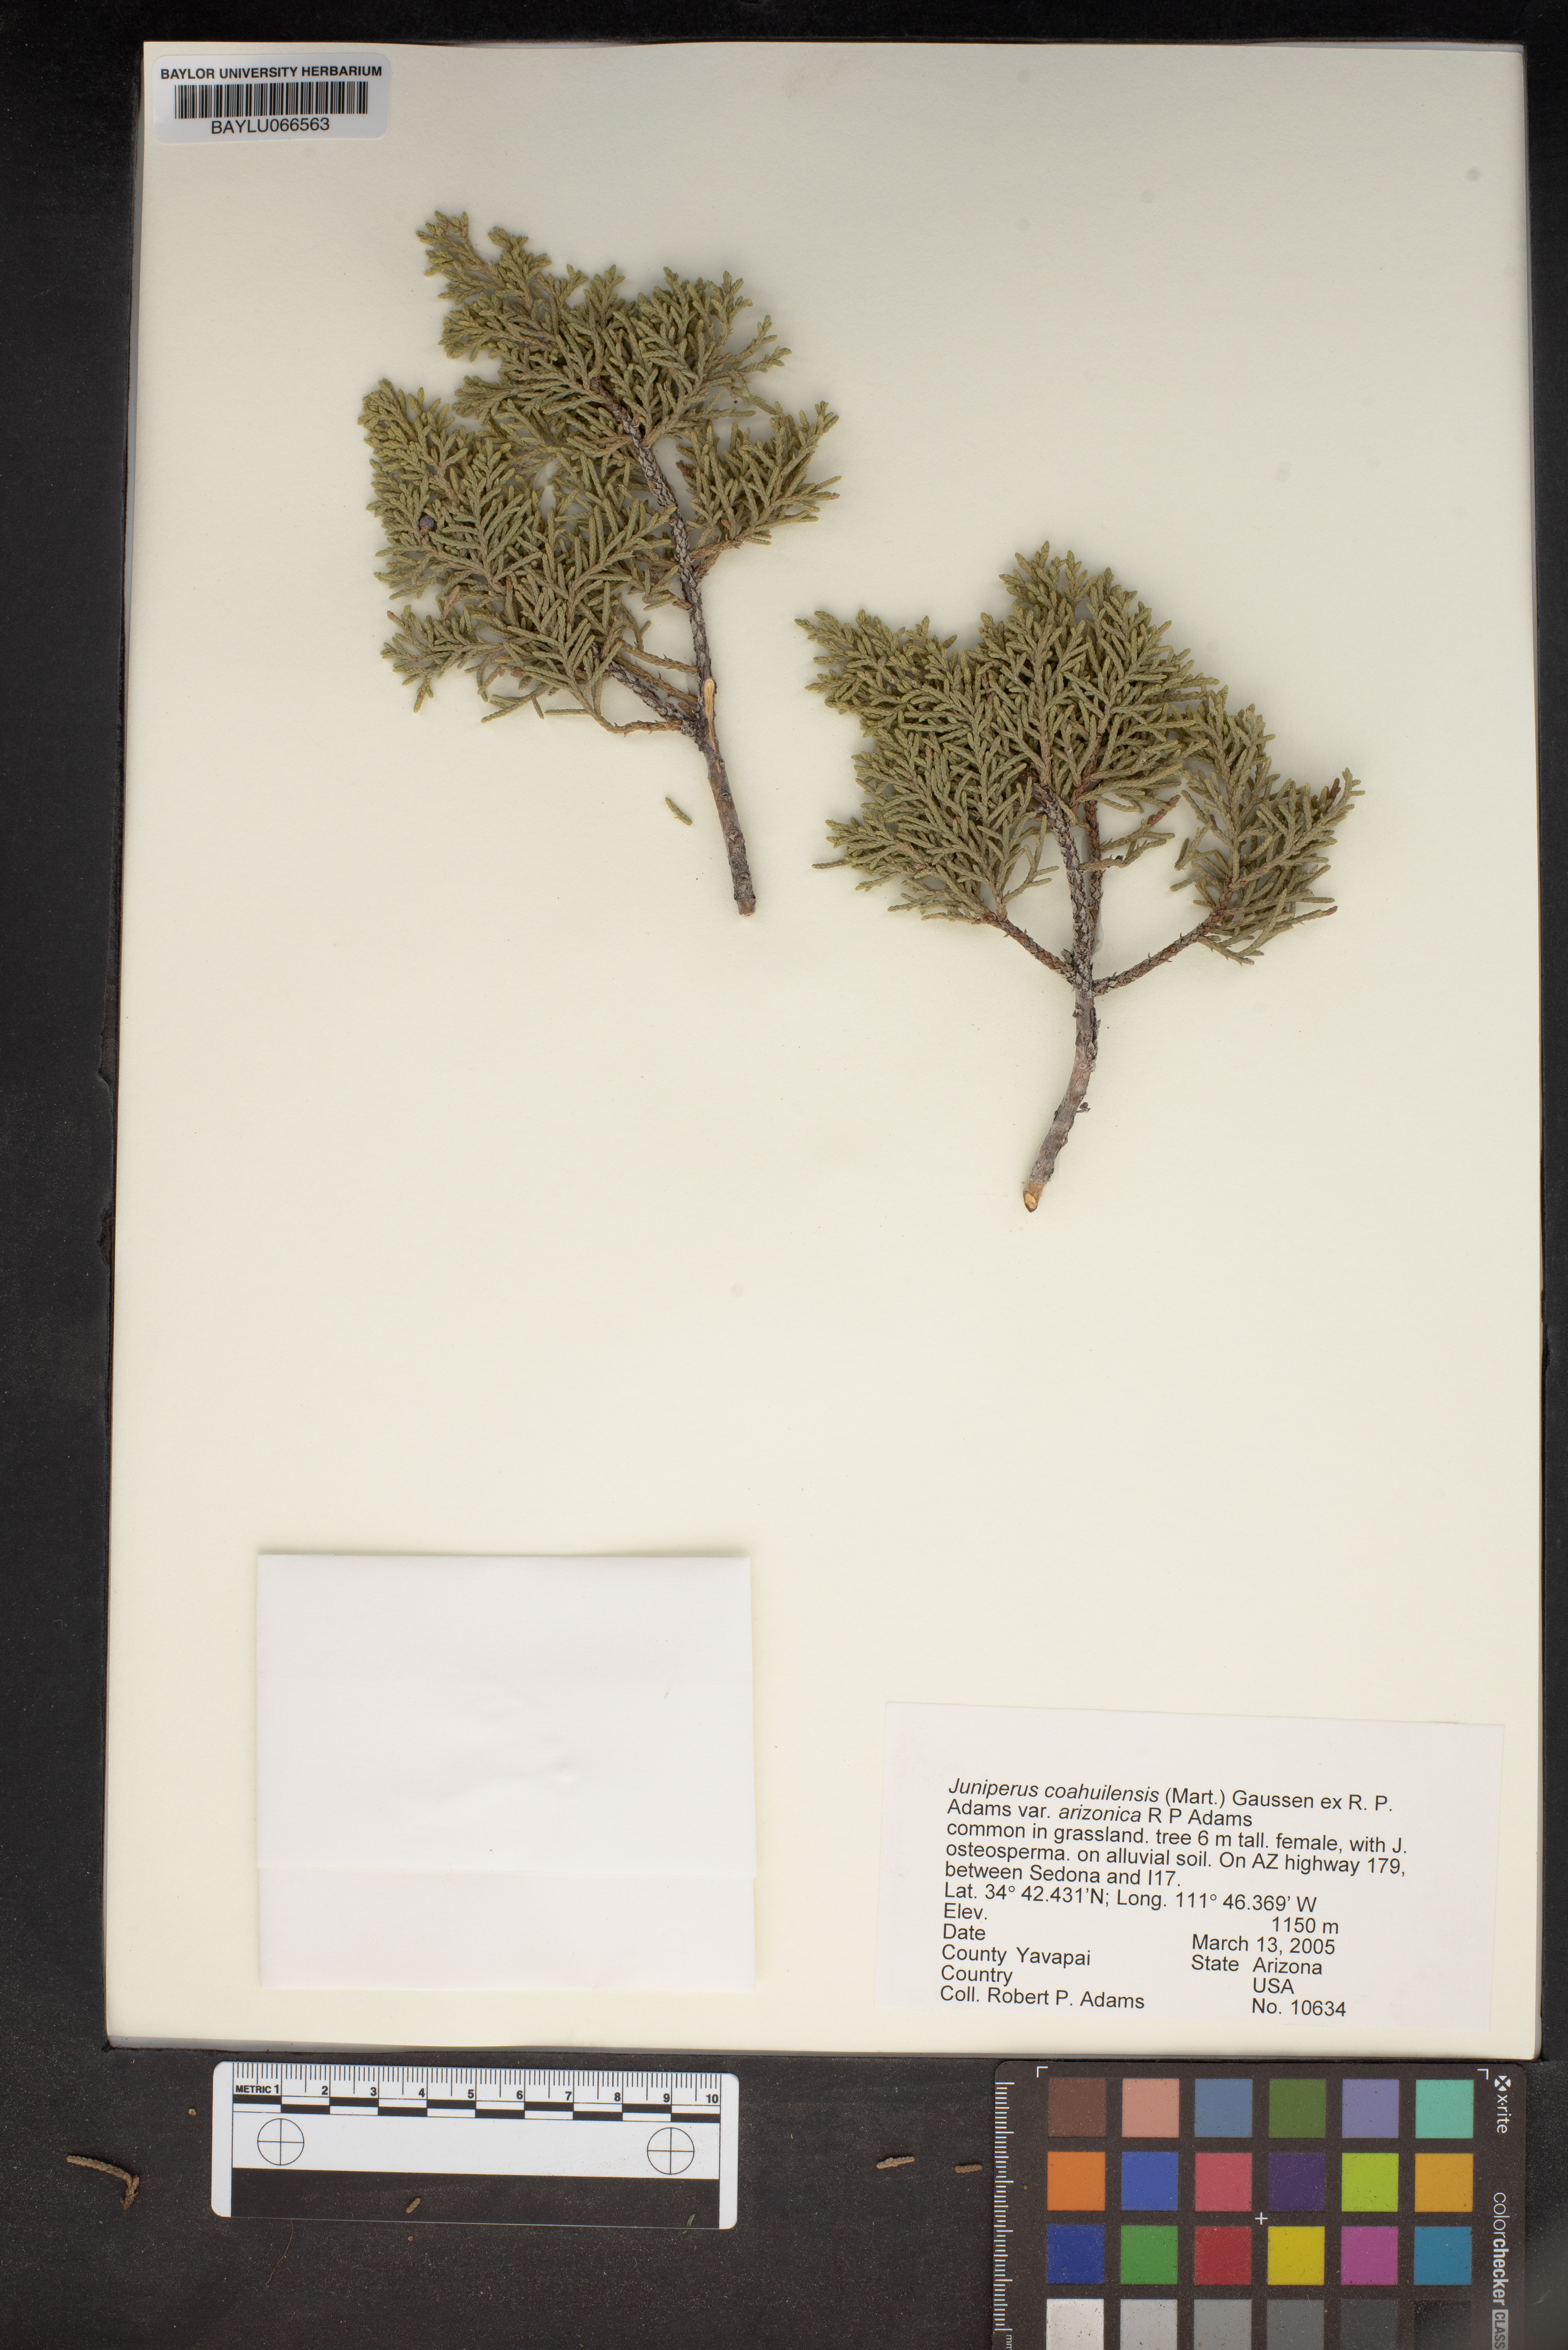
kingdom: Plantae
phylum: Tracheophyta
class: Pinopsida
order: Pinales
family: Cupressaceae
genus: Juniperus
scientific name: Juniperus arizonica
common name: Arizona juniper
